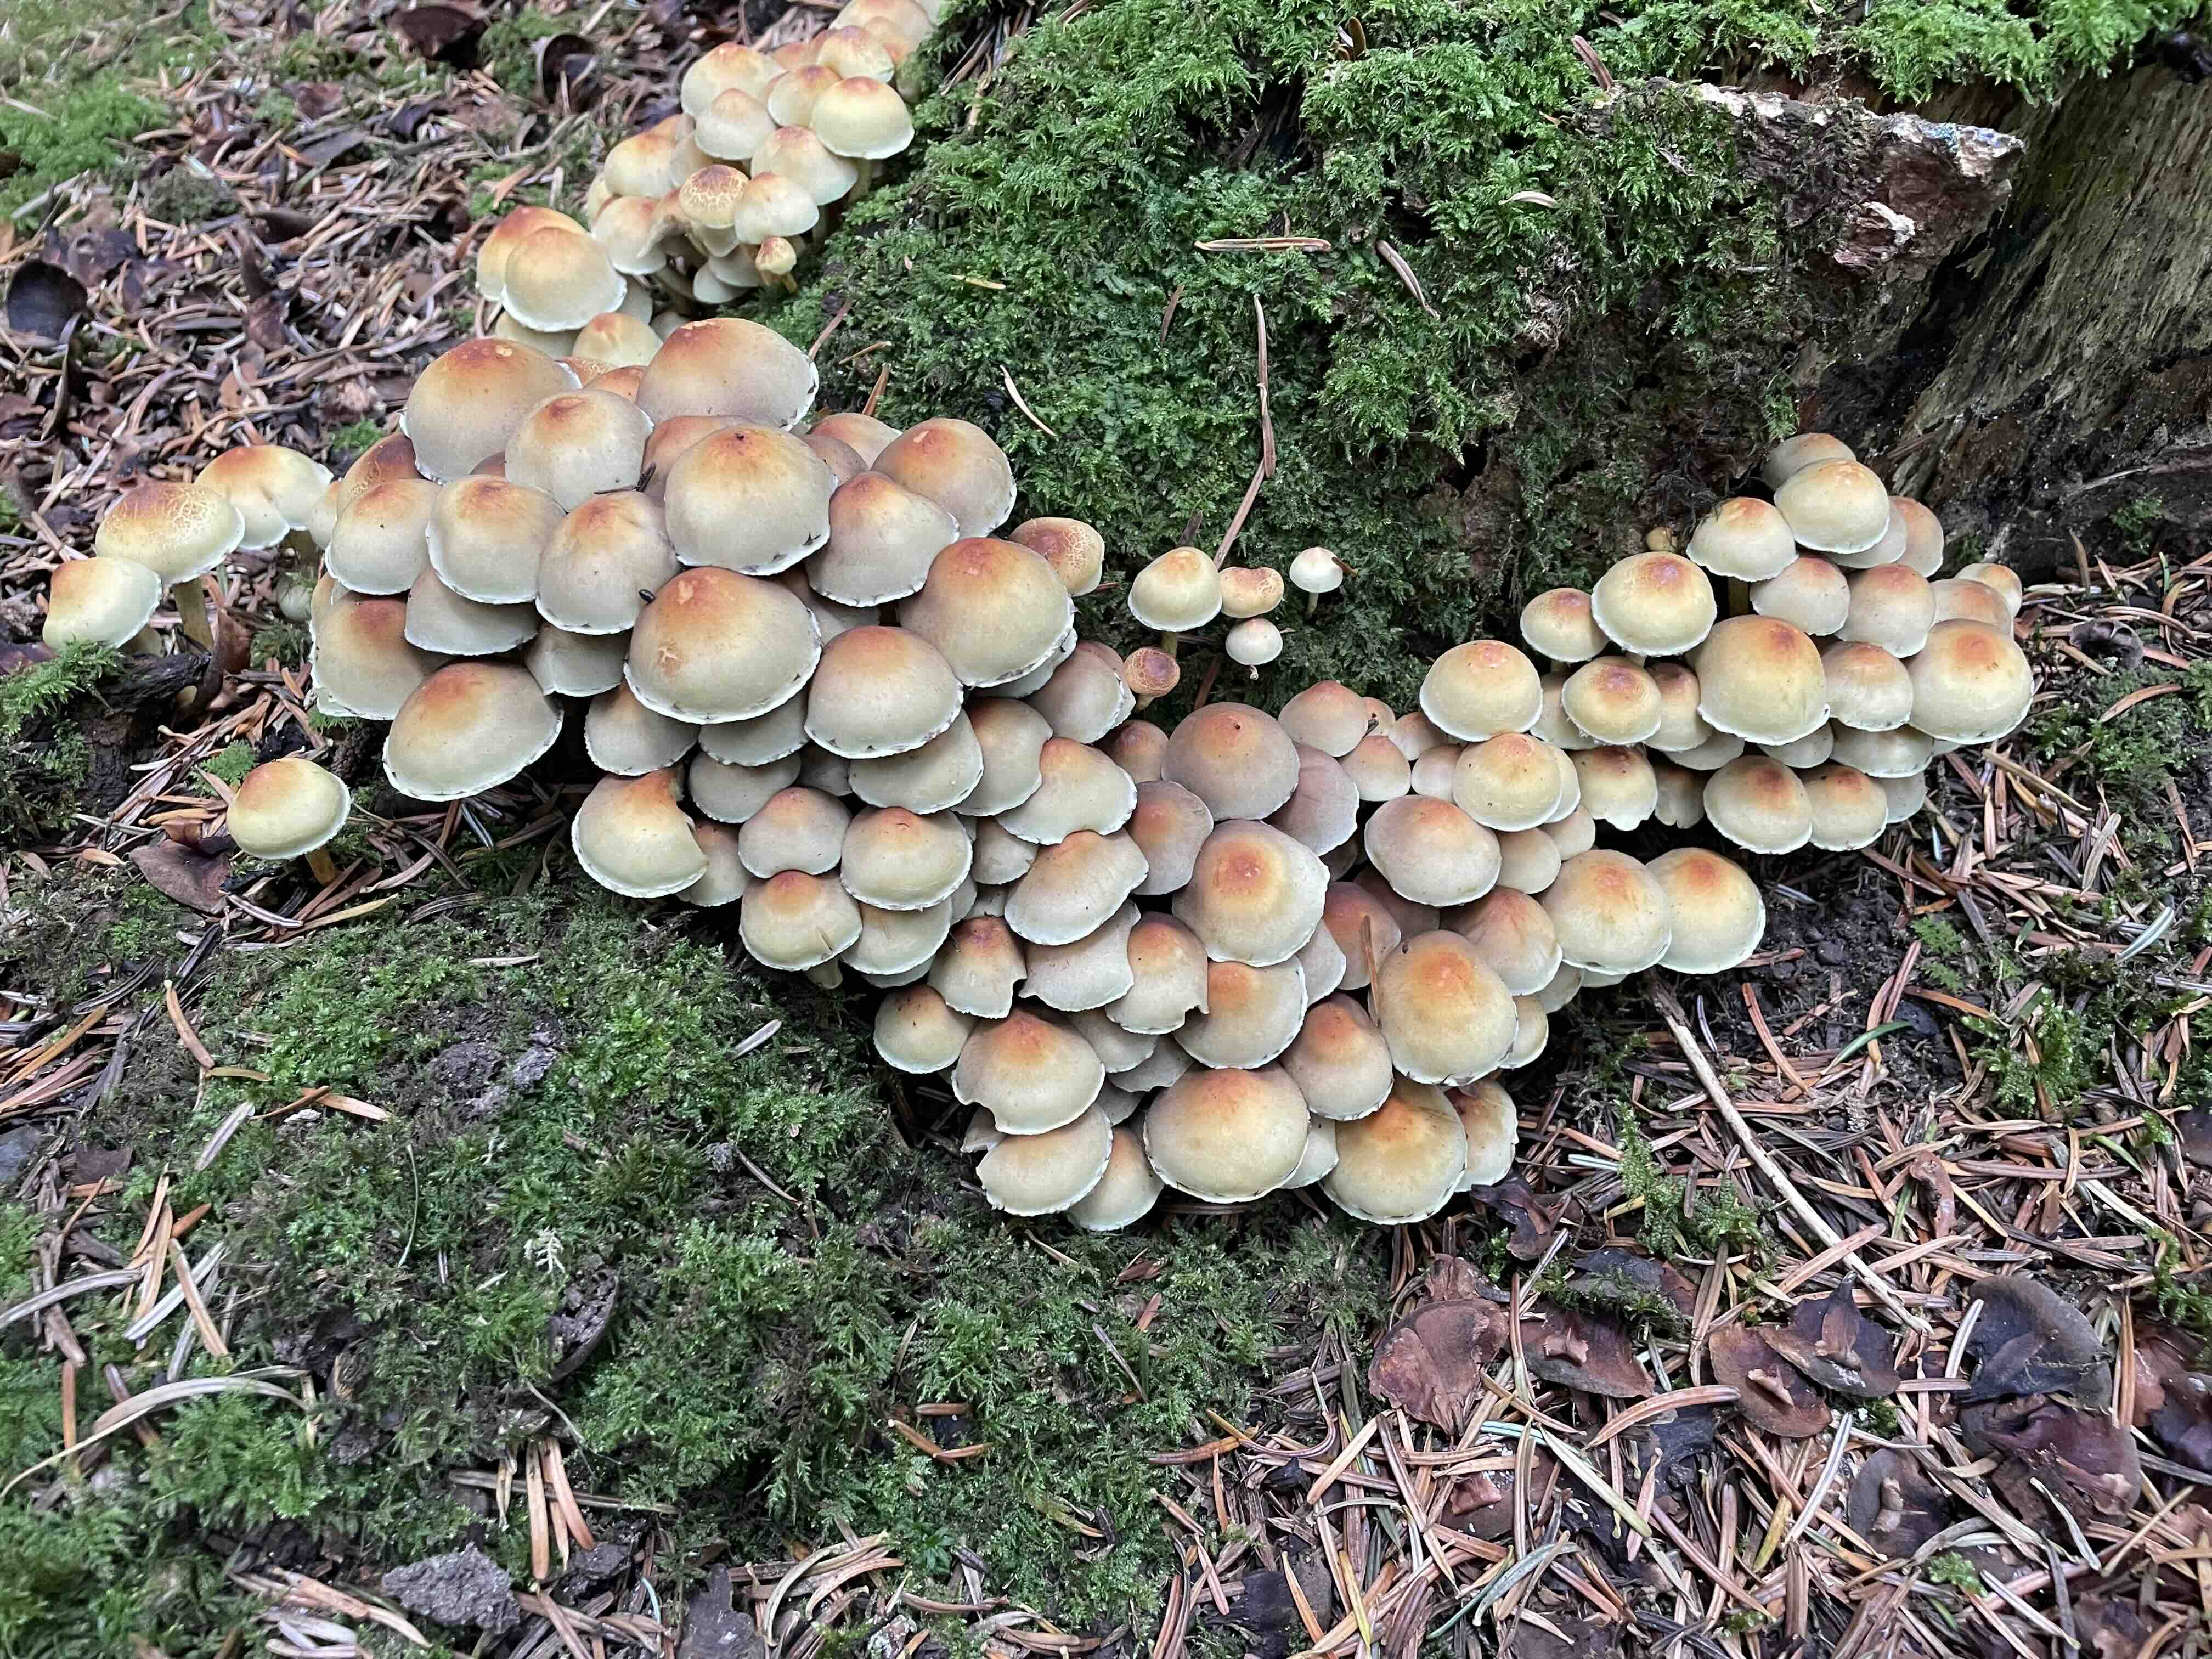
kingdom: Fungi
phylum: Basidiomycota
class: Agaricomycetes
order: Agaricales
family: Strophariaceae
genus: Hypholoma
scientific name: Hypholoma fasciculare
